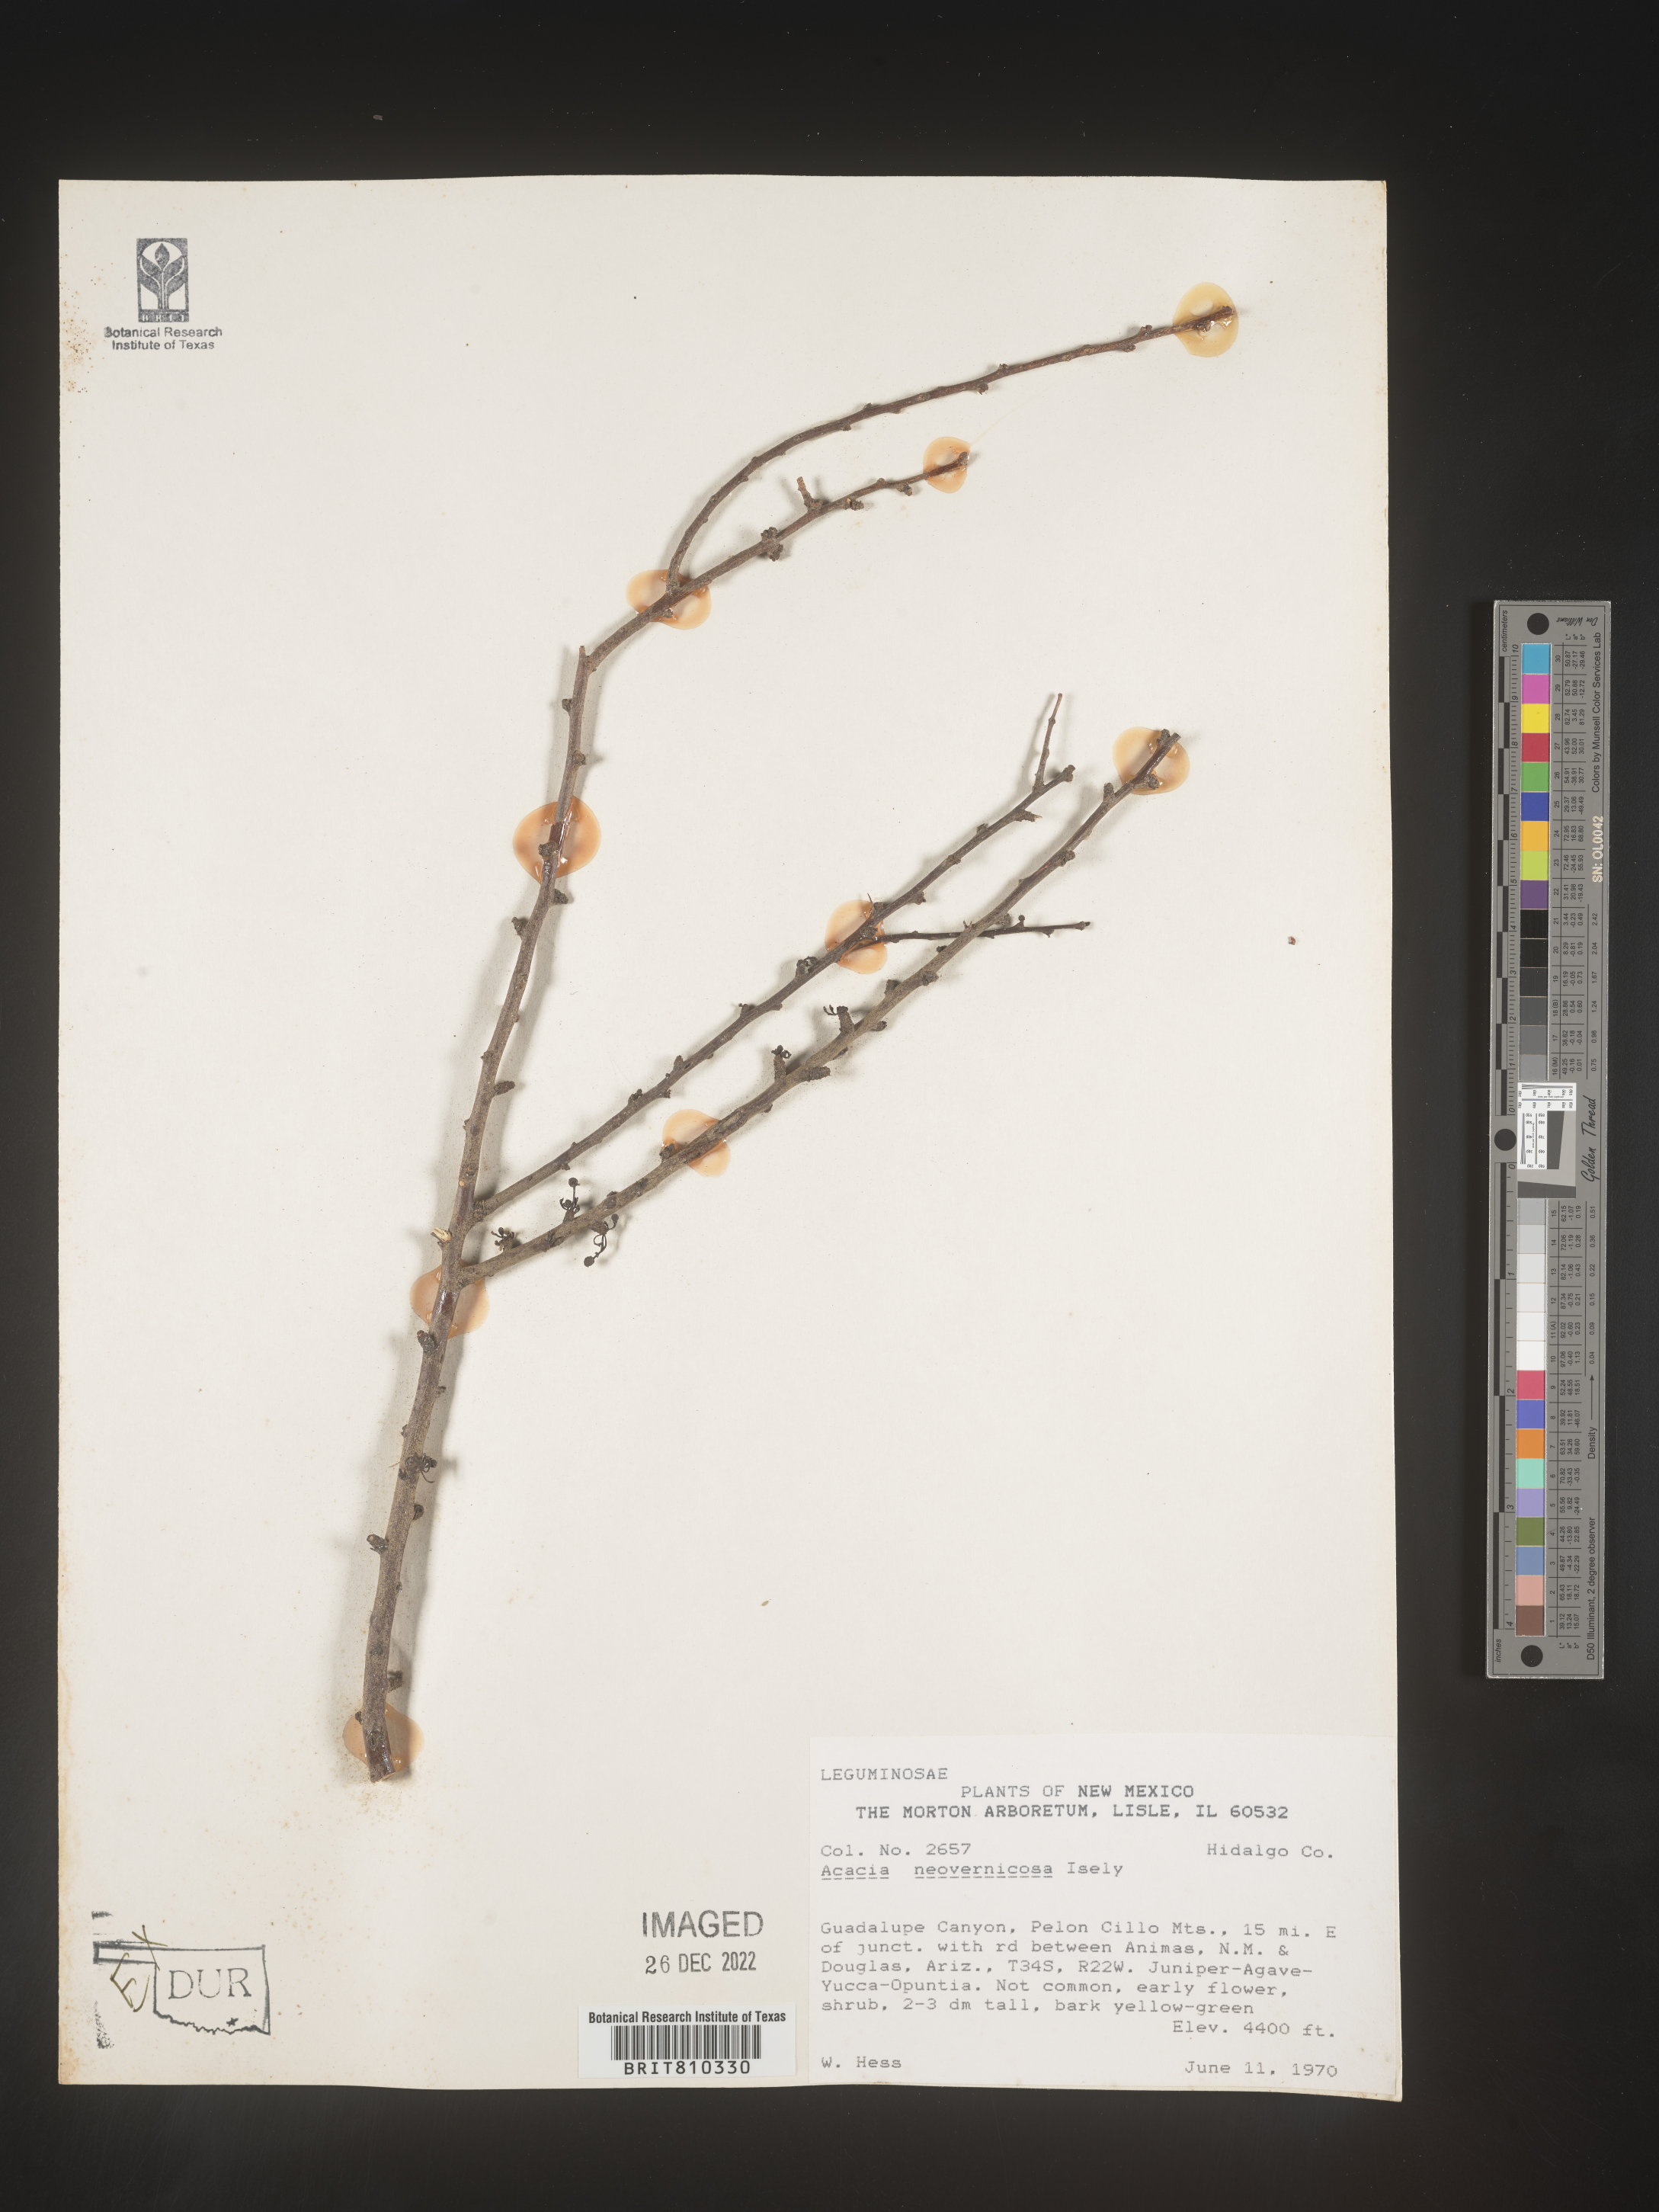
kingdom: Plantae
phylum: Tracheophyta
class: Magnoliopsida
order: Fabales
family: Fabaceae
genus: Acacia
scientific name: Acacia
